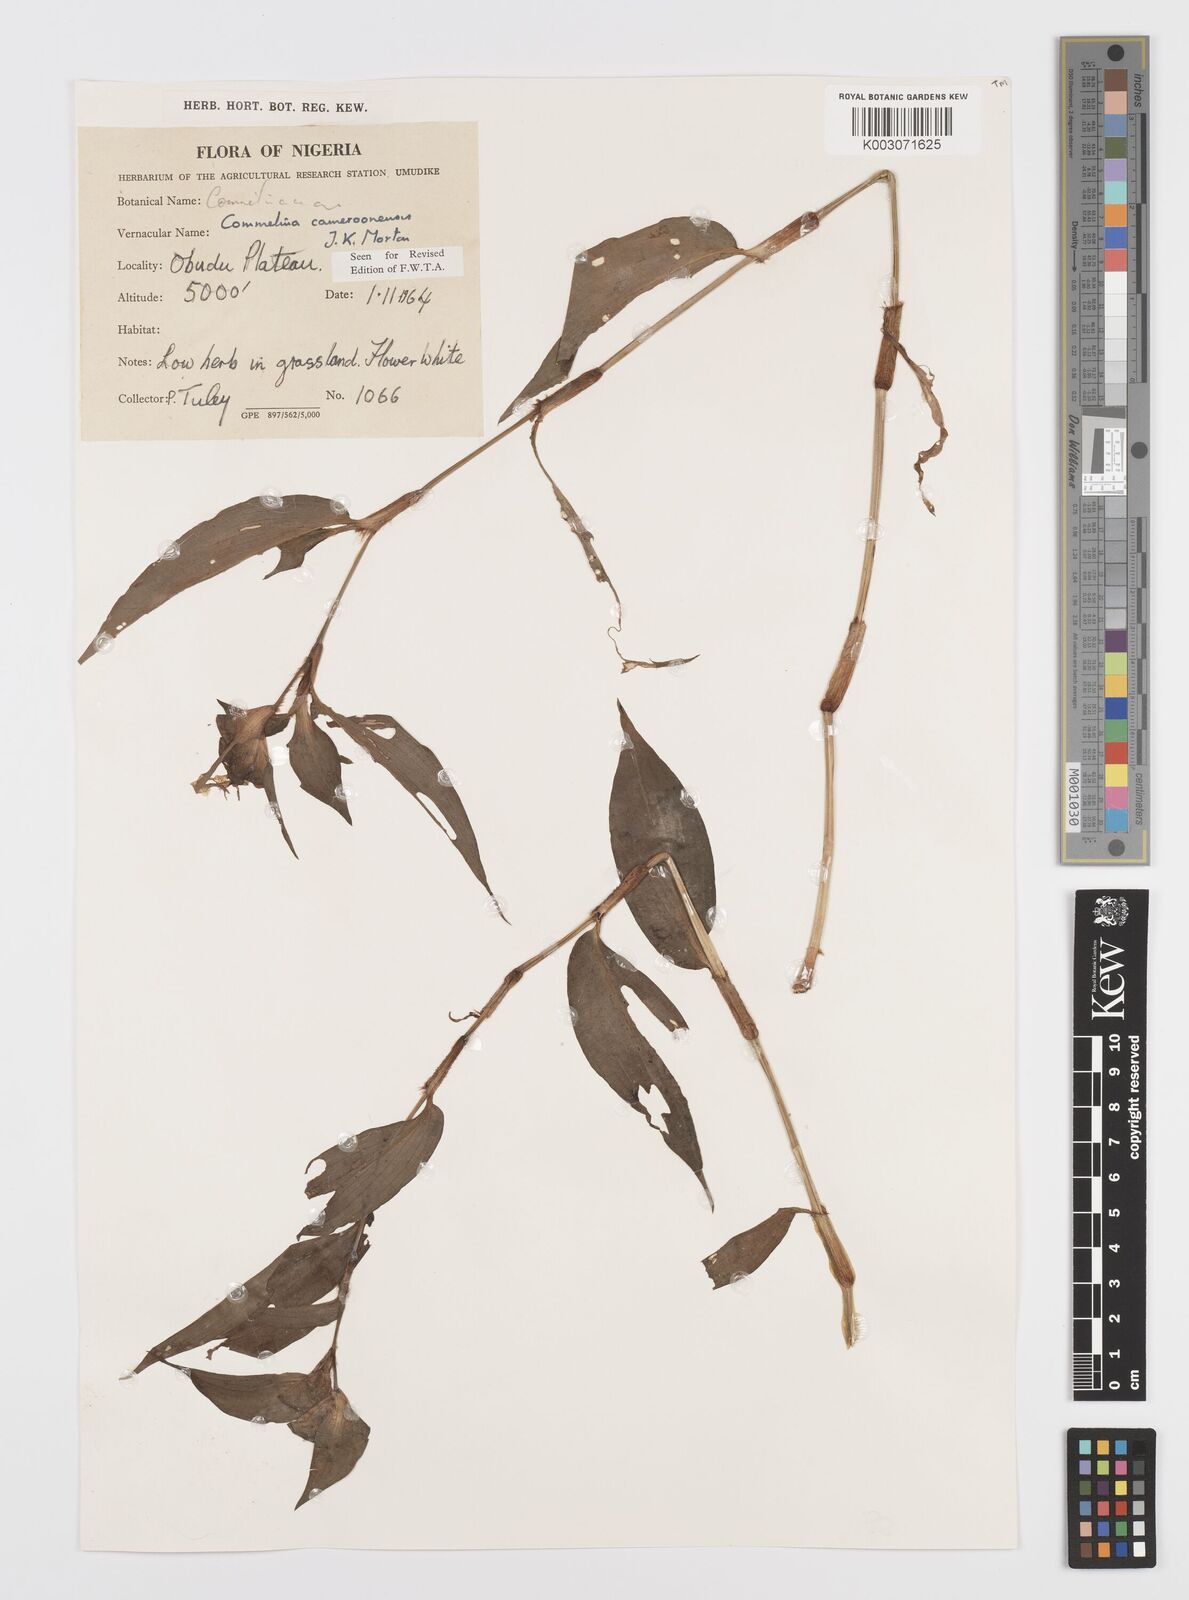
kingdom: Plantae
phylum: Tracheophyta
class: Liliopsida
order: Commelinales
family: Commelinaceae
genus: Commelina
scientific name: Commelina cameroonensis
